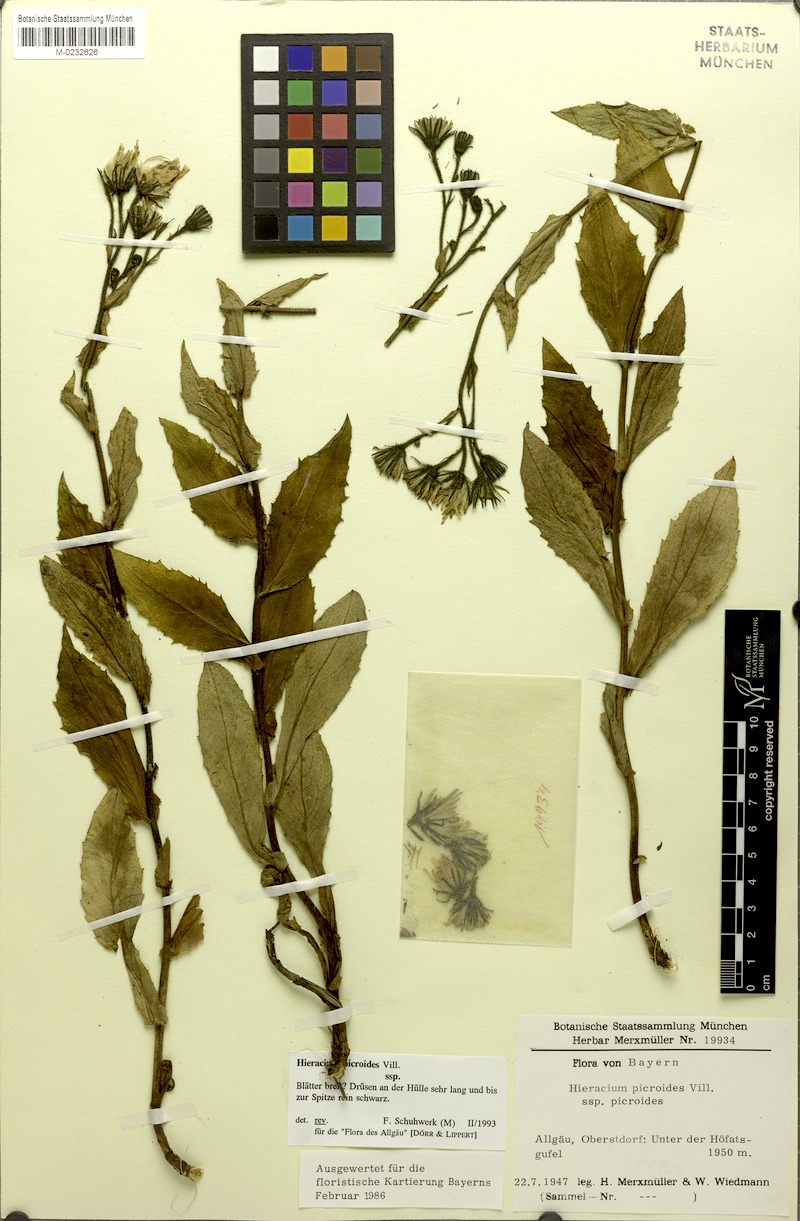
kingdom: Plantae
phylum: Tracheophyta
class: Magnoliopsida
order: Asterales
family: Asteraceae
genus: Hieracium
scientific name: Hieracium picroides
